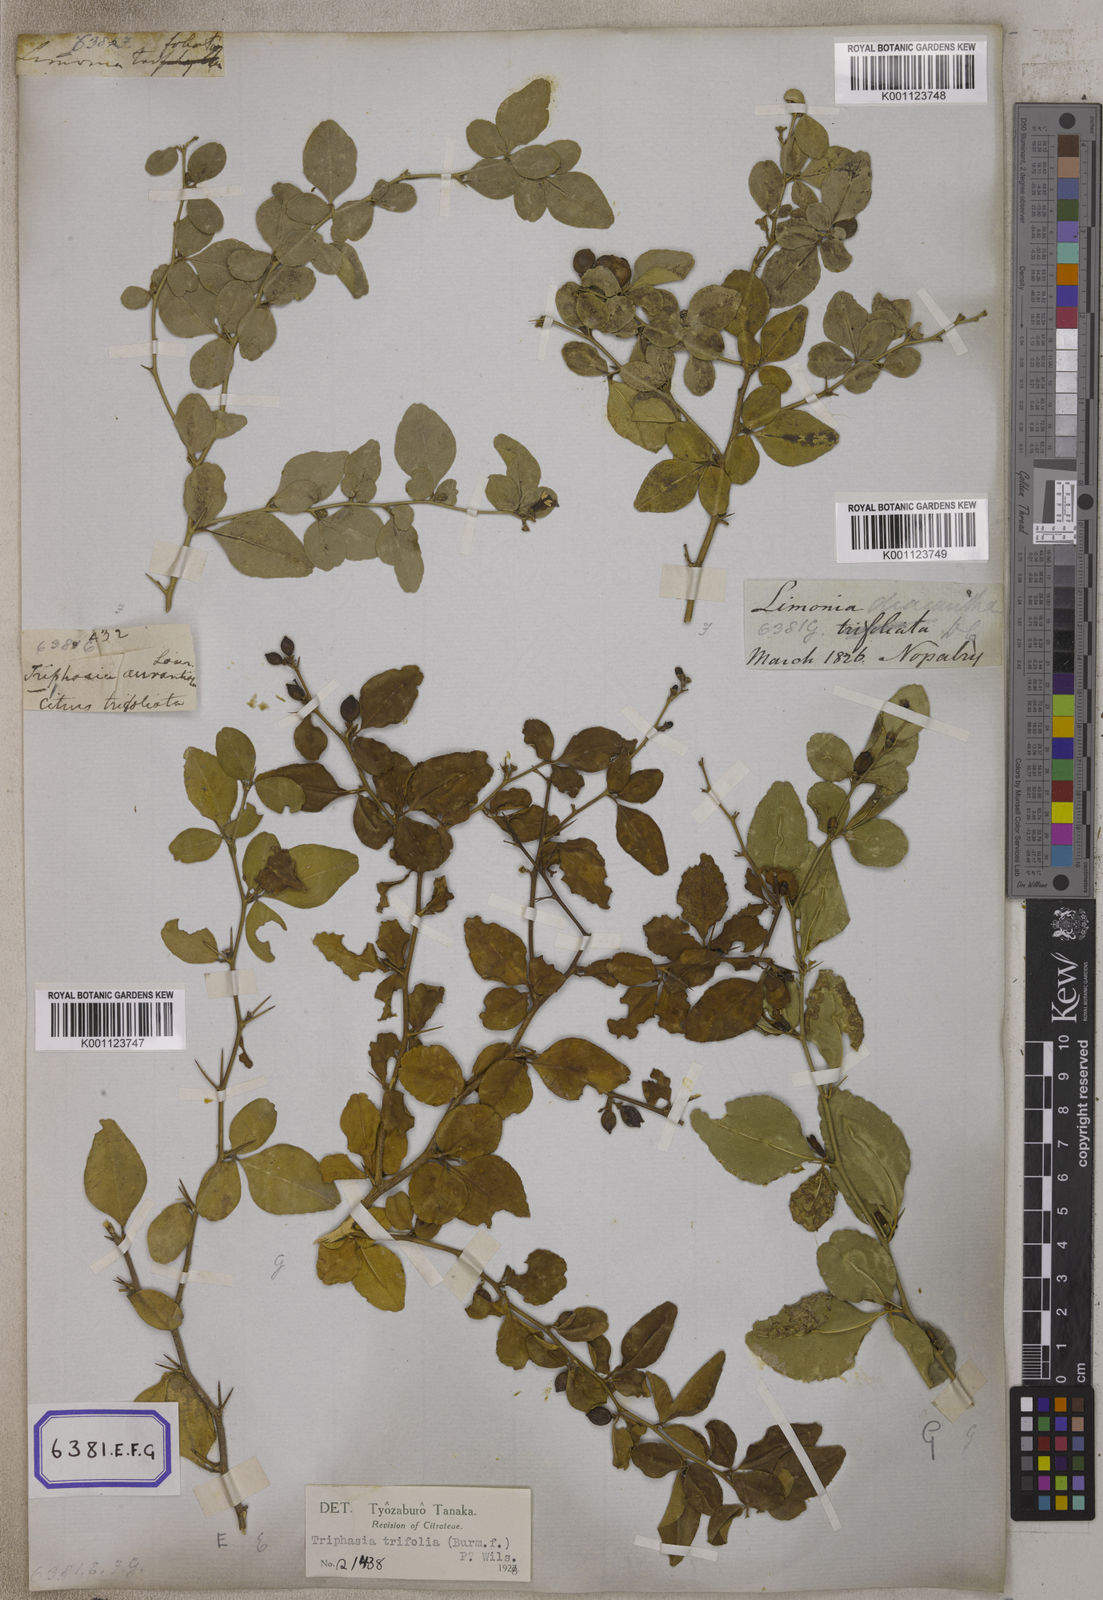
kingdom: Plantae
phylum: Tracheophyta
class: Magnoliopsida
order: Sapindales
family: Rutaceae
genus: Triphasia
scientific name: Triphasia trifolia
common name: Limeberry
